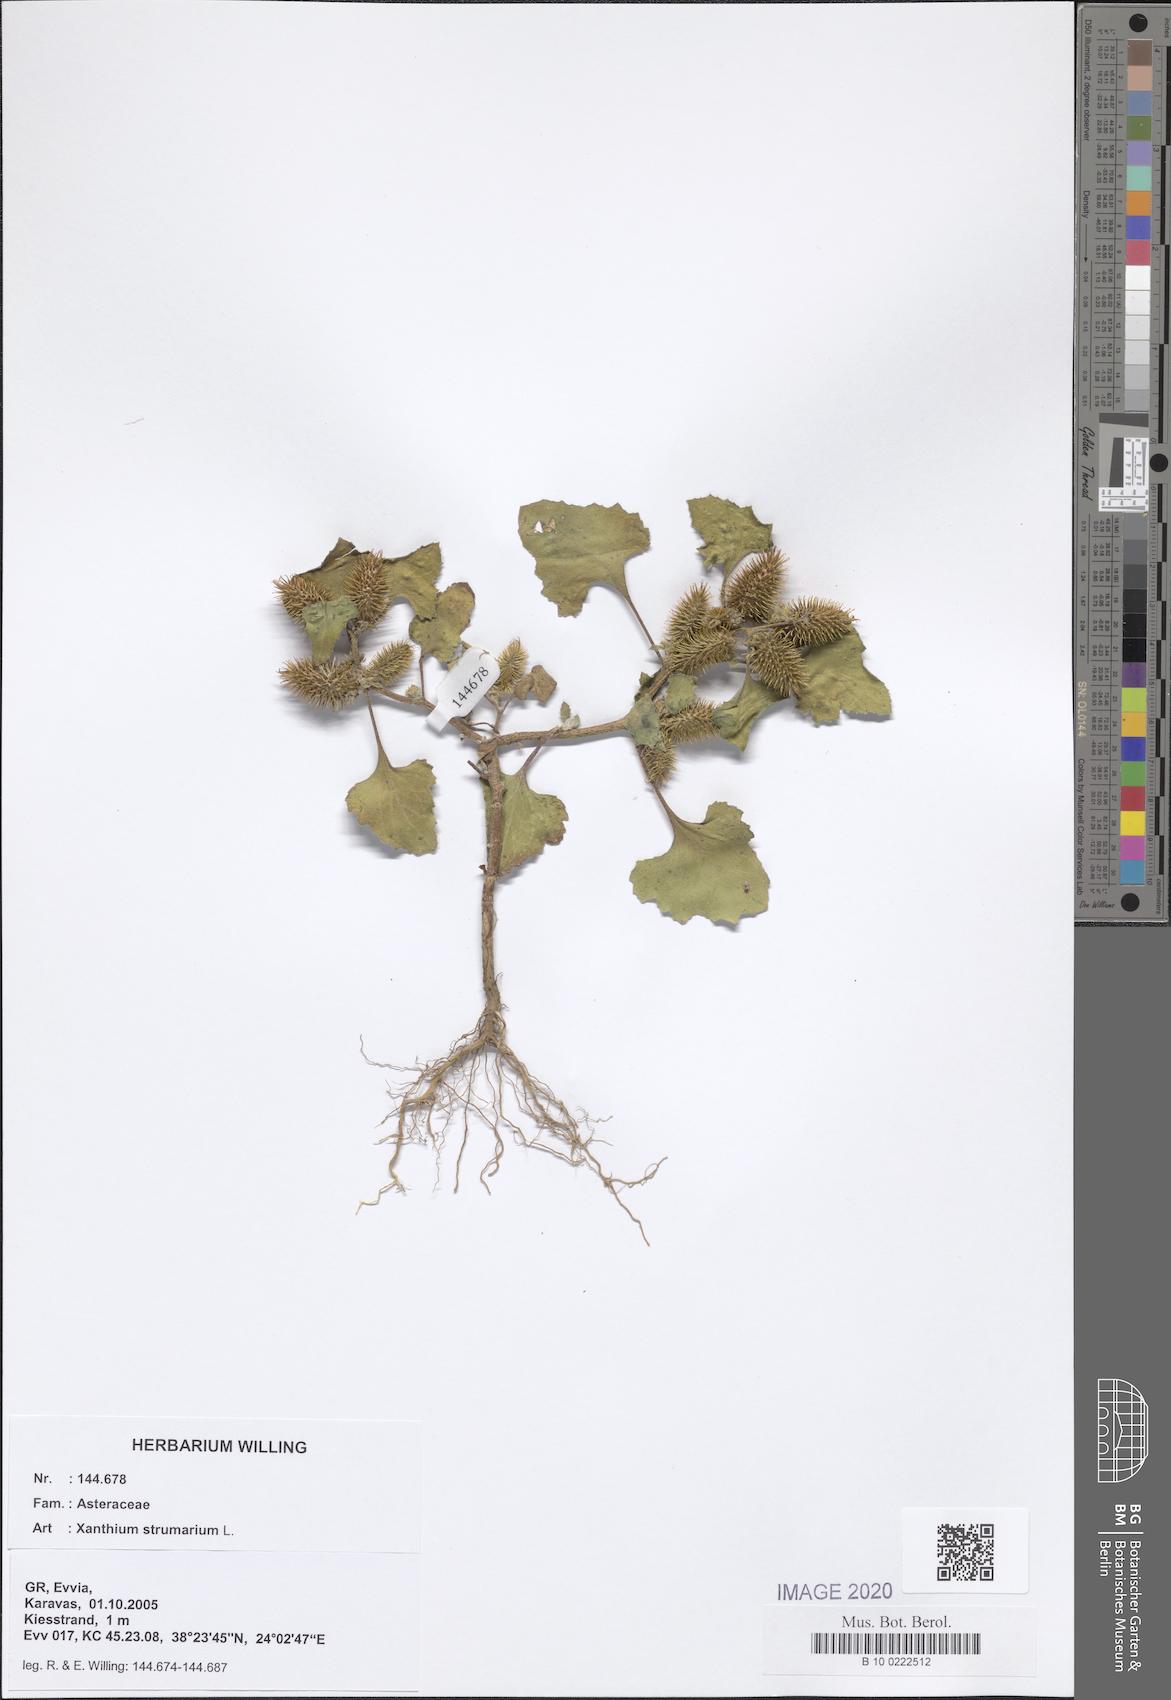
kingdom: Plantae
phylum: Tracheophyta
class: Magnoliopsida
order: Asterales
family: Asteraceae
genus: Xanthium
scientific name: Xanthium strumarium
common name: Rough cocklebur
